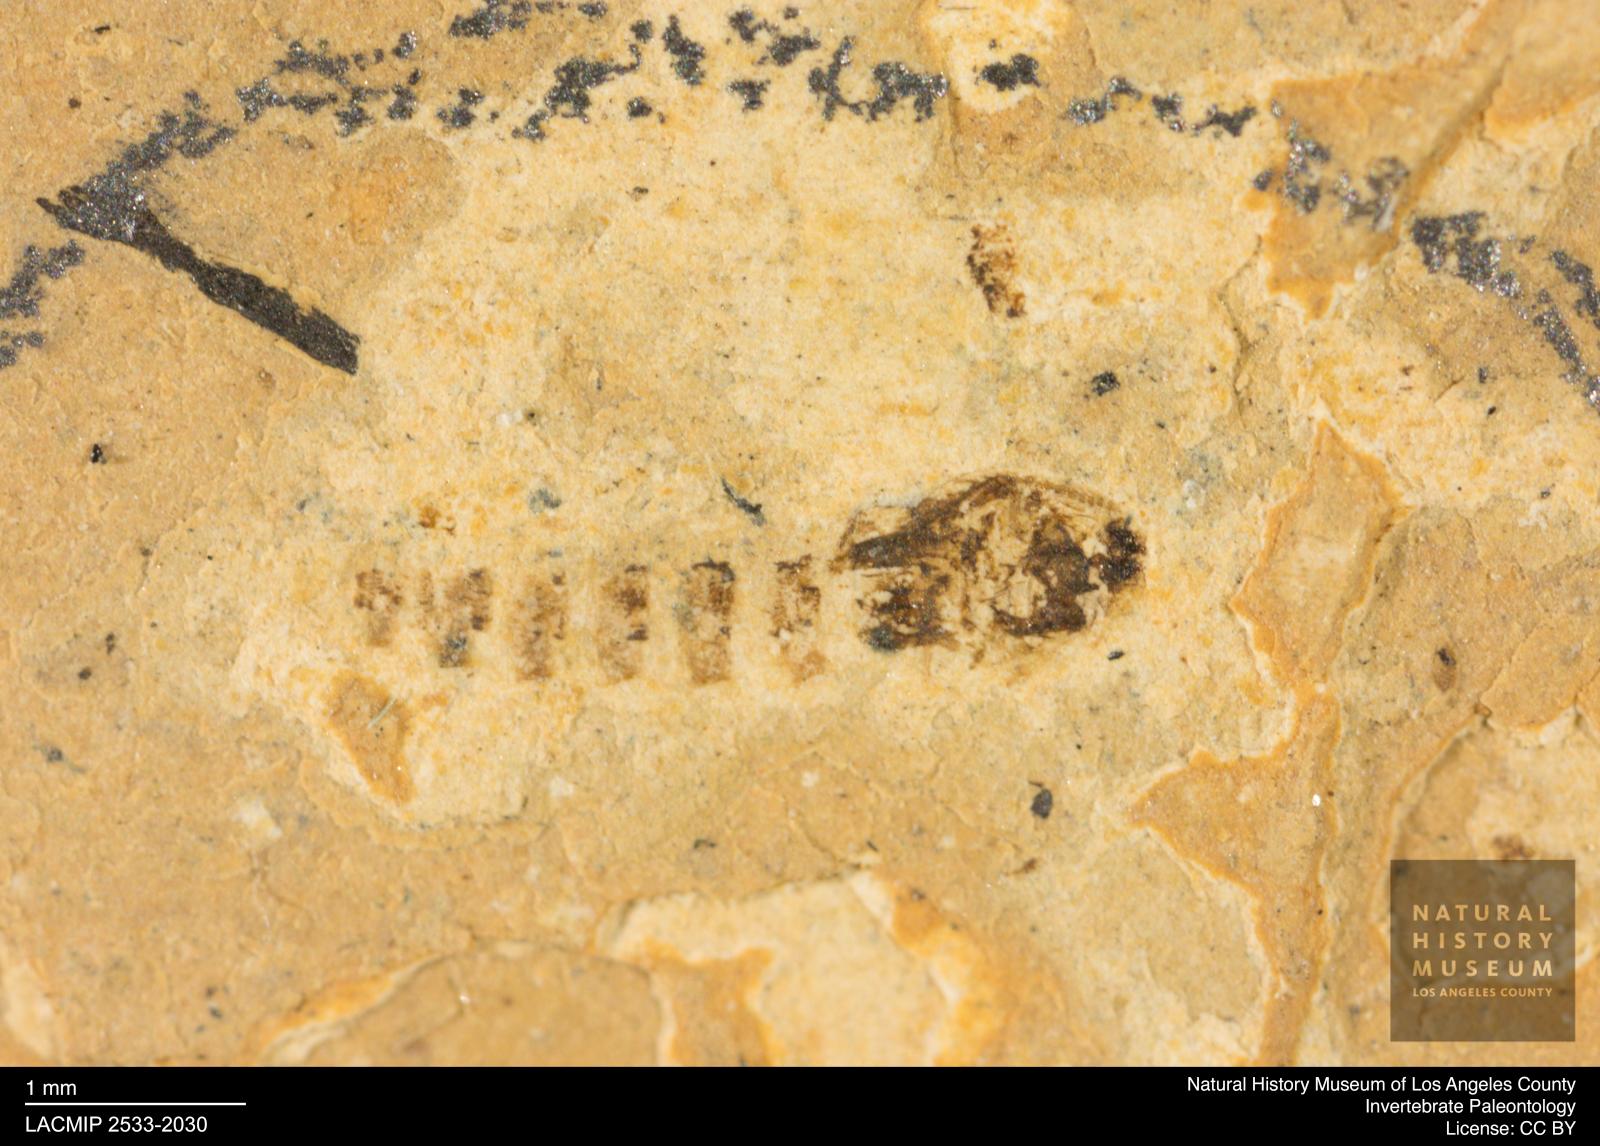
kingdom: Animalia
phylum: Arthropoda
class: Insecta
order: Diptera
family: Ceratopogonidae
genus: Ceratopogon
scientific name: Ceratopogon
